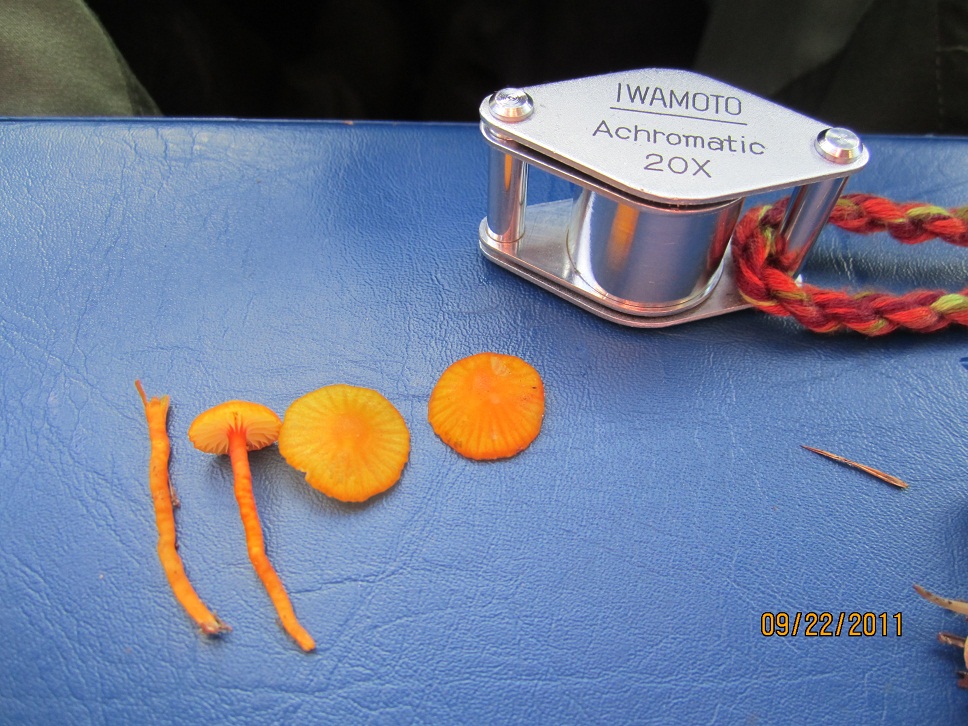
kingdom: Fungi
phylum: Basidiomycota
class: Agaricomycetes
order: Agaricales
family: Hygrophoraceae
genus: Hygrocybe
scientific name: Hygrocybe insipida
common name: liden vokshat
